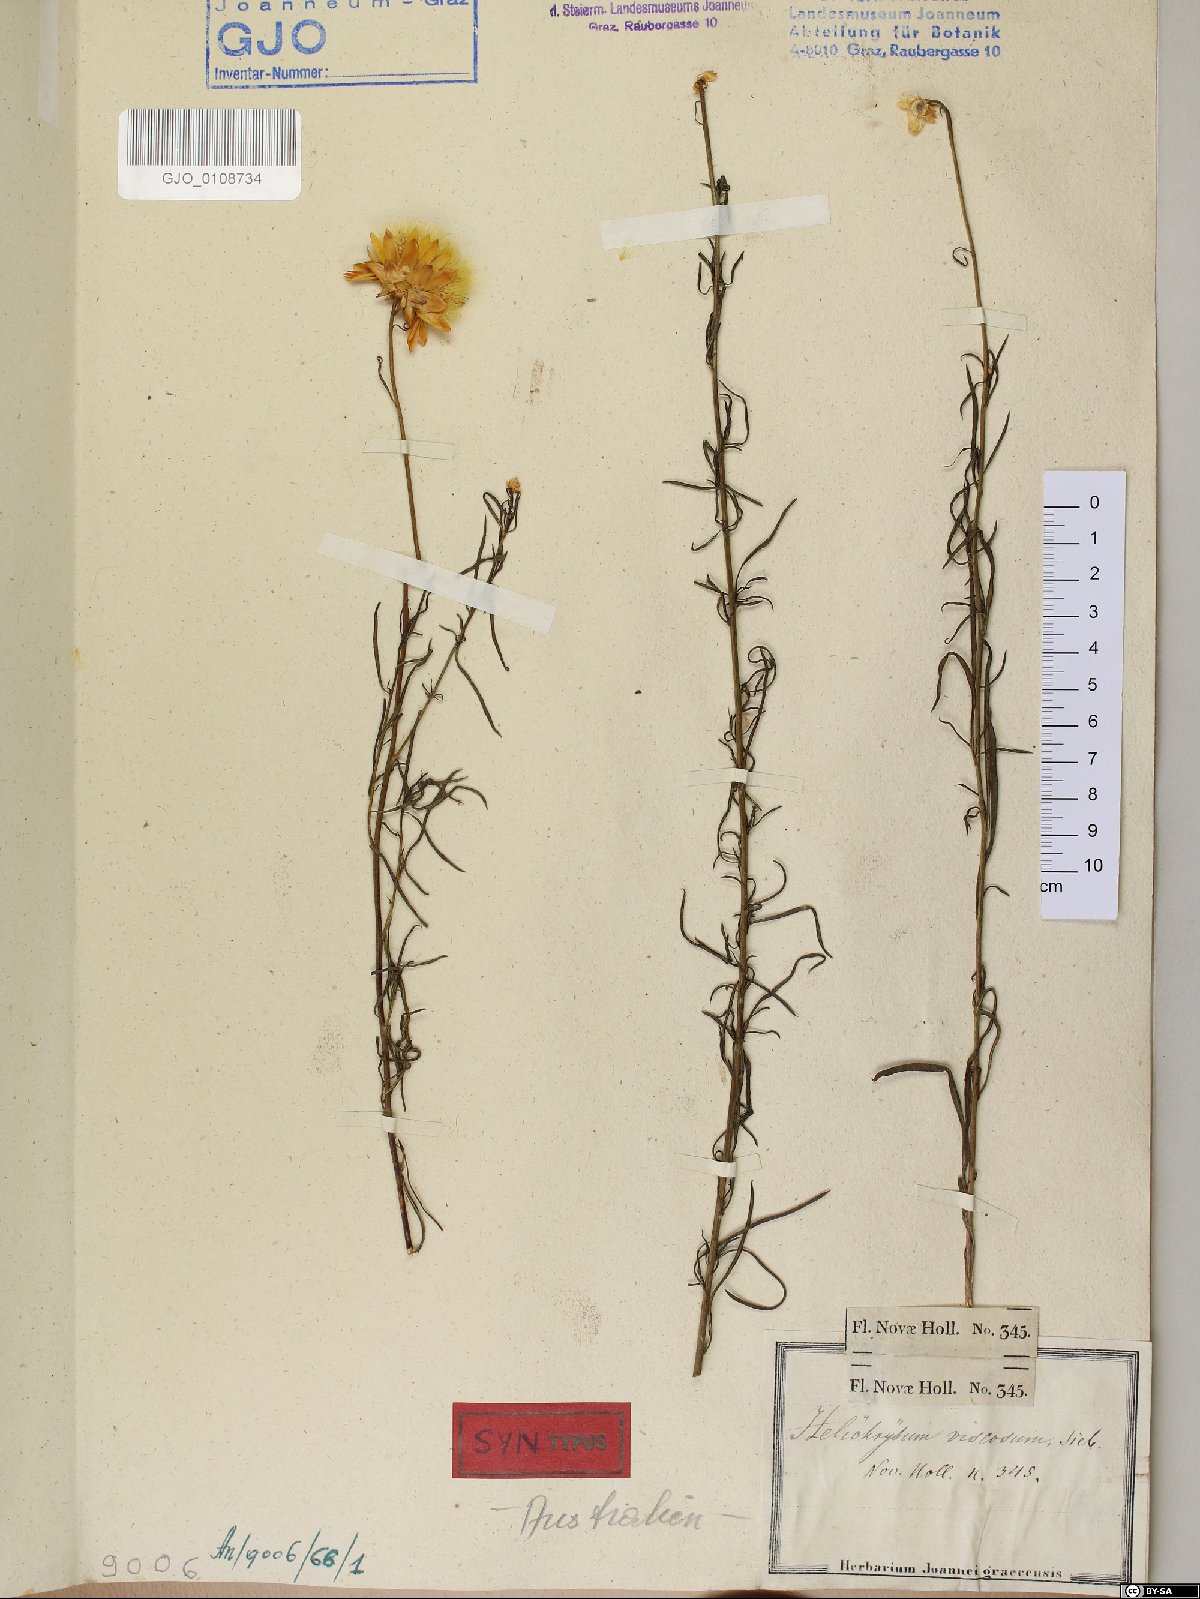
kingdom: Plantae
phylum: Tracheophyta
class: Magnoliopsida
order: Asterales
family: Asteraceae
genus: Xerochrysum
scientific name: Xerochrysum viscosum
